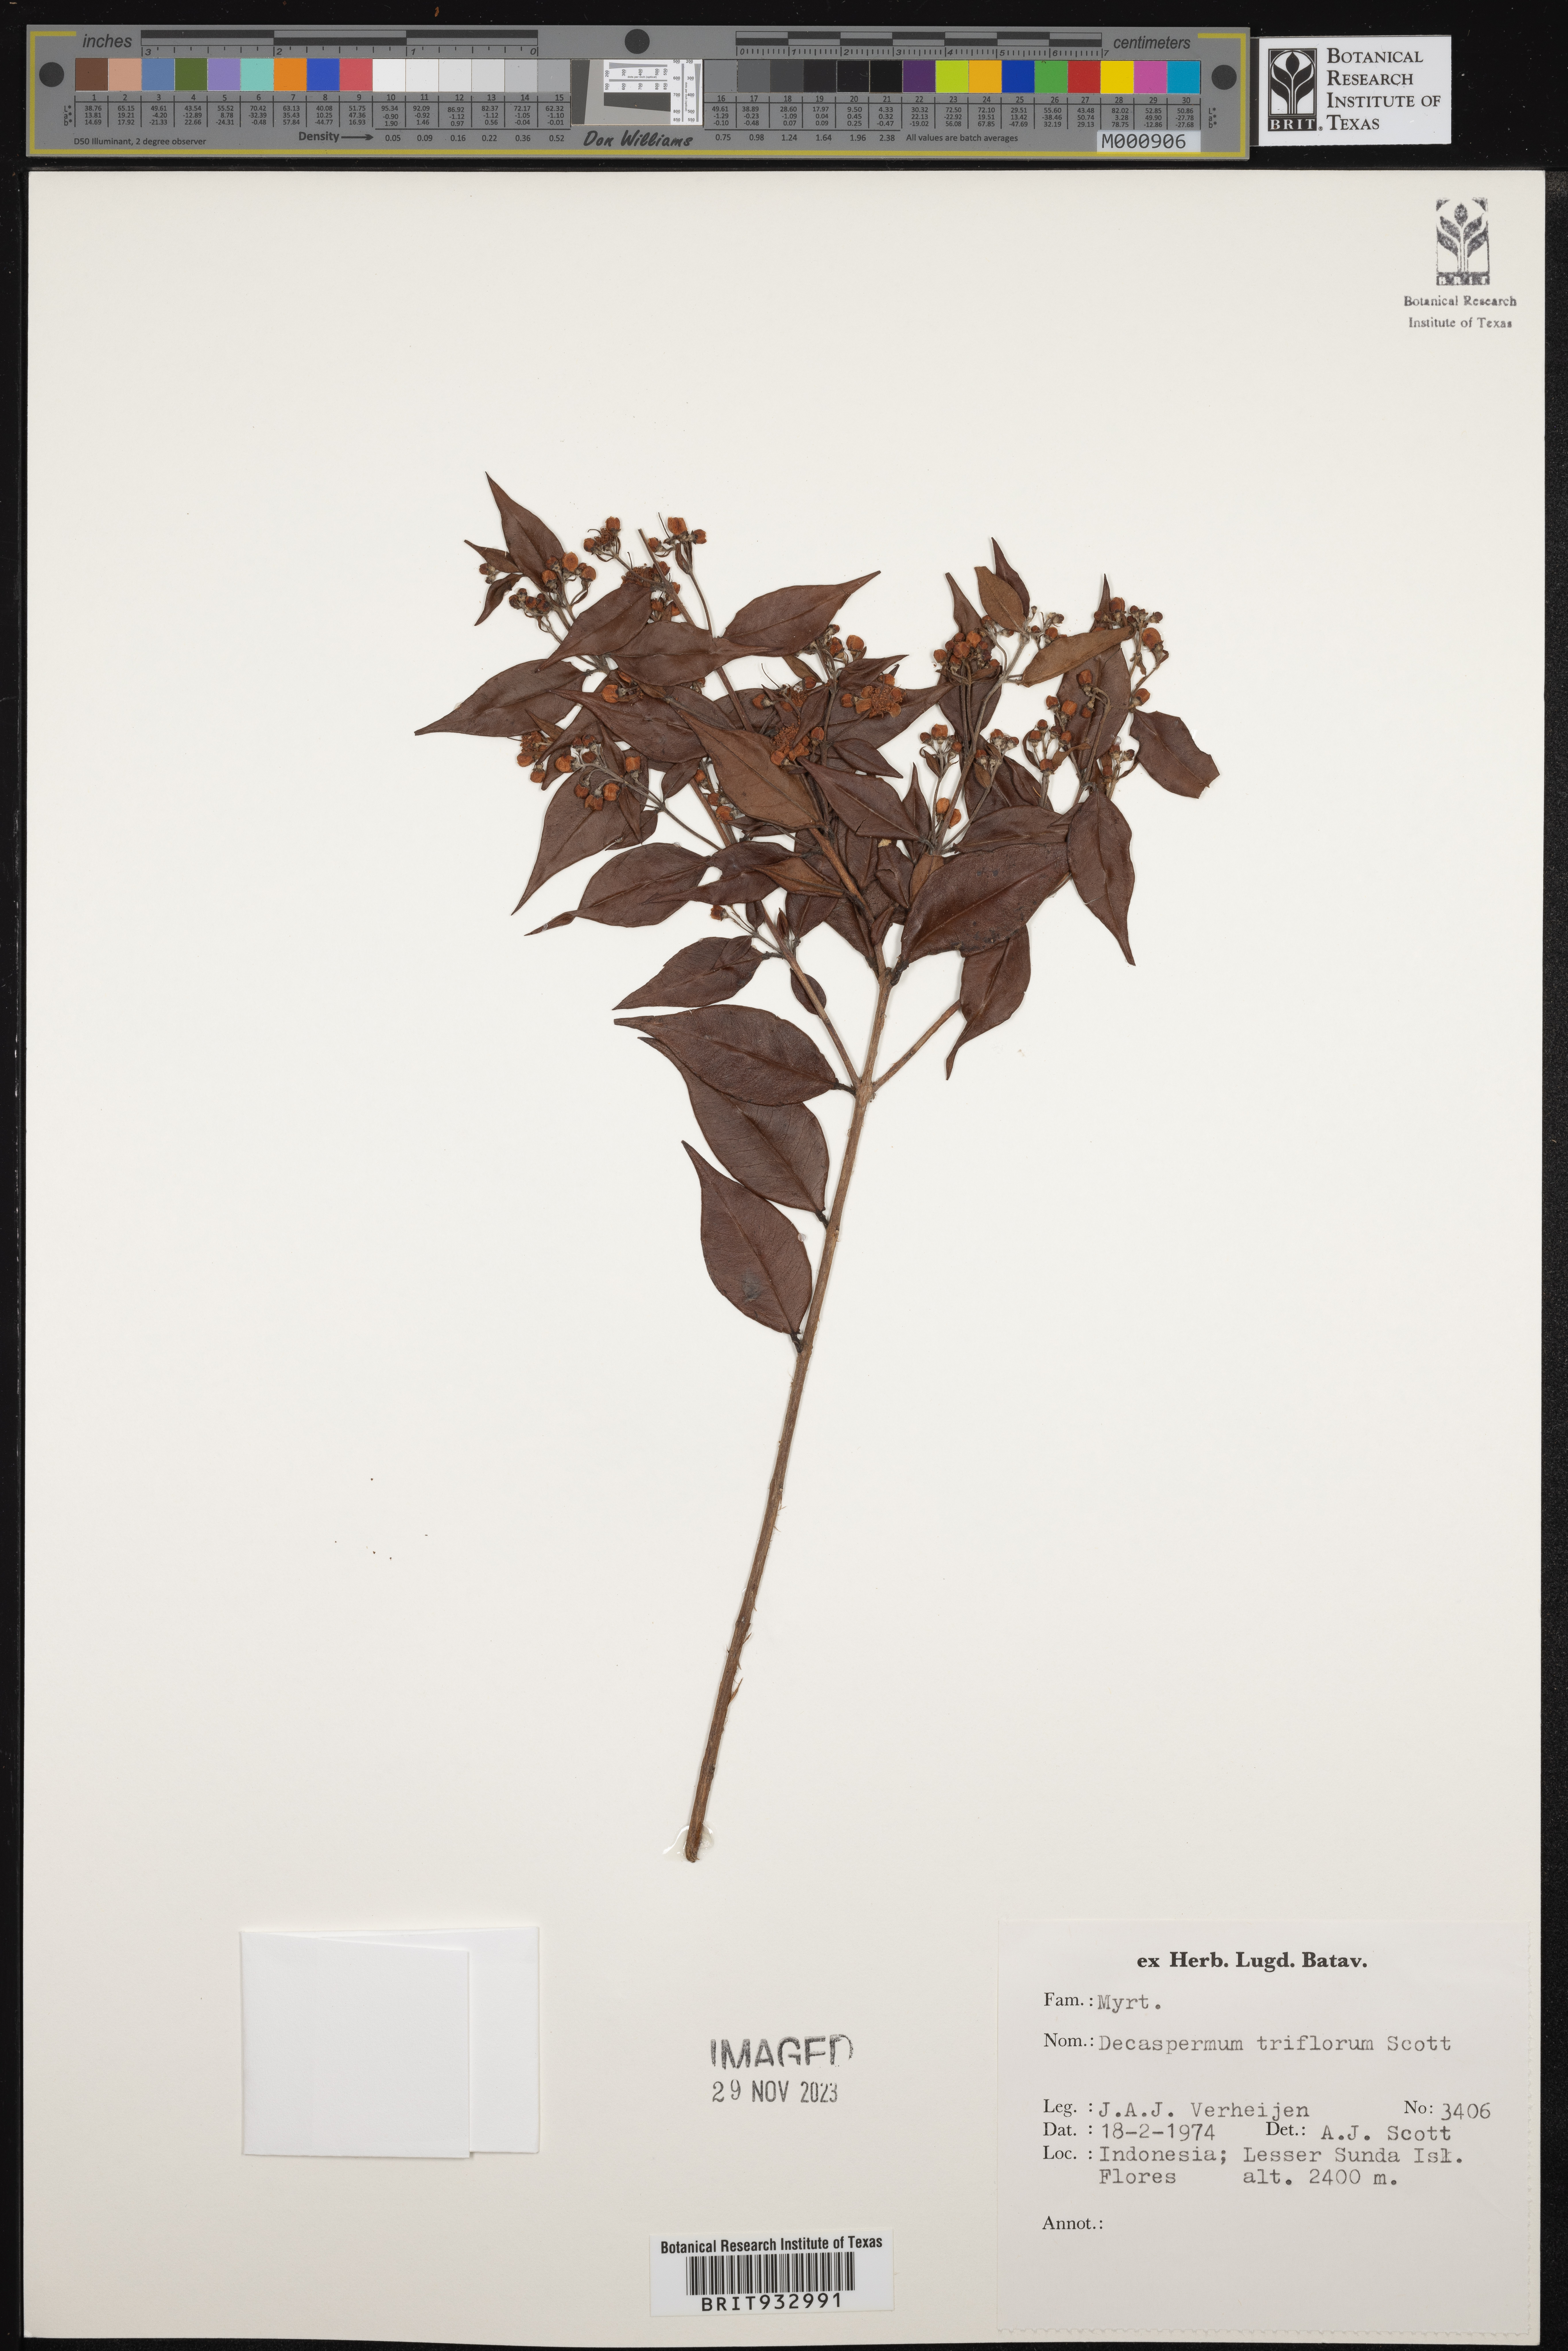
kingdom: Plantae
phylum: Tracheophyta
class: Magnoliopsida
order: Myrtales
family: Myrtaceae
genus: Decaspermum
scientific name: Decaspermum
